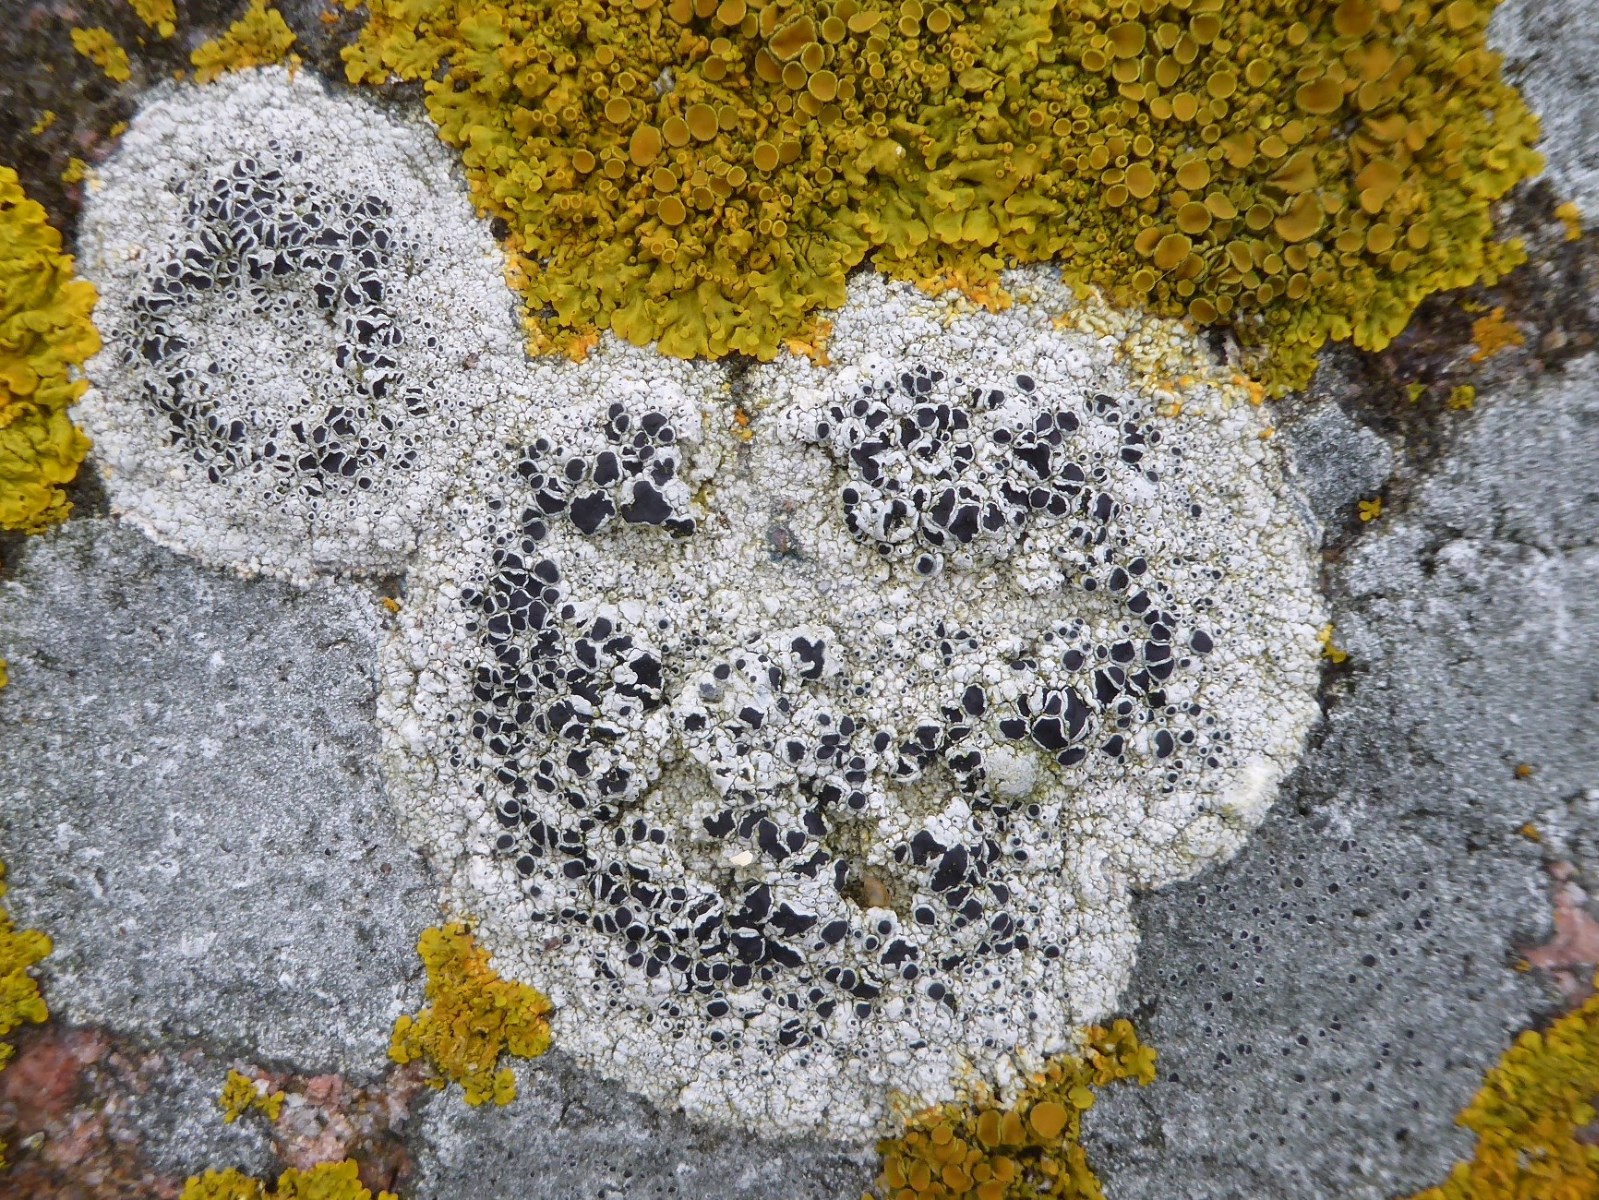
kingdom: Fungi
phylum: Ascomycota
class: Lecanoromycetes
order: Lecanorales
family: Tephromelataceae
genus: Tephromela
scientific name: Tephromela atra
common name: sortfrugtet kantskivelav
